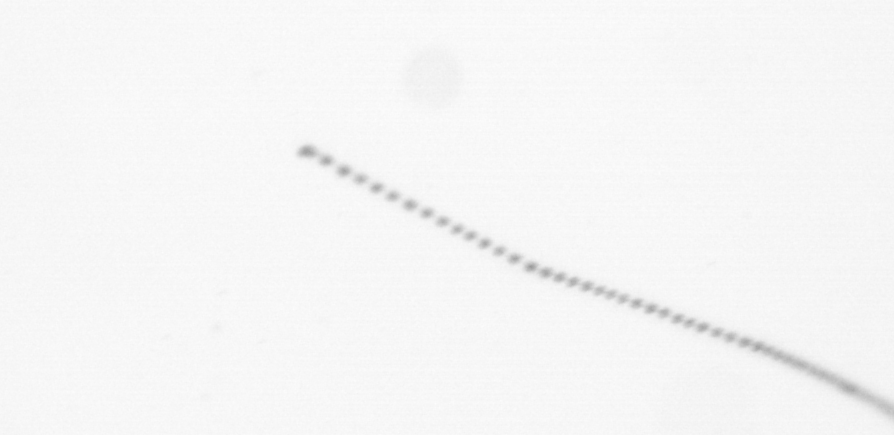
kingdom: Chromista
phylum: Ochrophyta
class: Bacillariophyceae
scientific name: Bacillariophyceae
